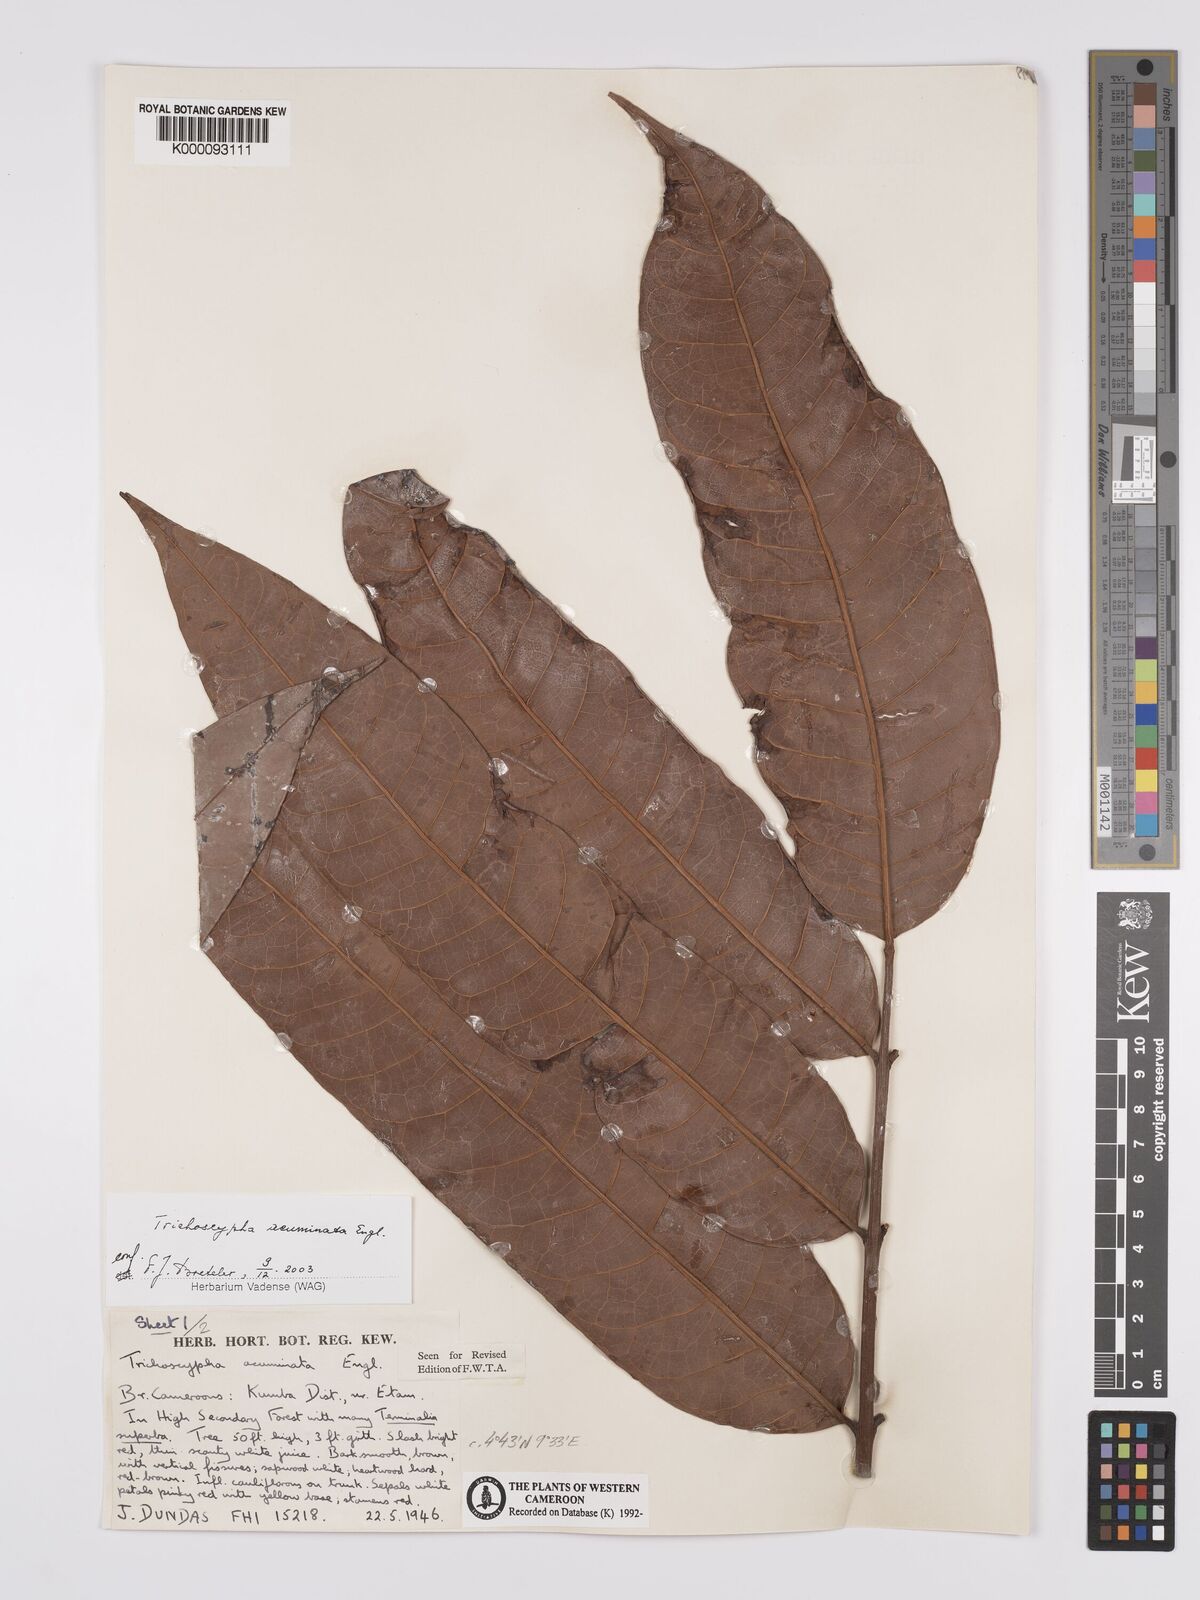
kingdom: Plantae
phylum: Tracheophyta
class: Magnoliopsida
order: Sapindales
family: Anacardiaceae
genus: Trichoscypha
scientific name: Trichoscypha acuminata
